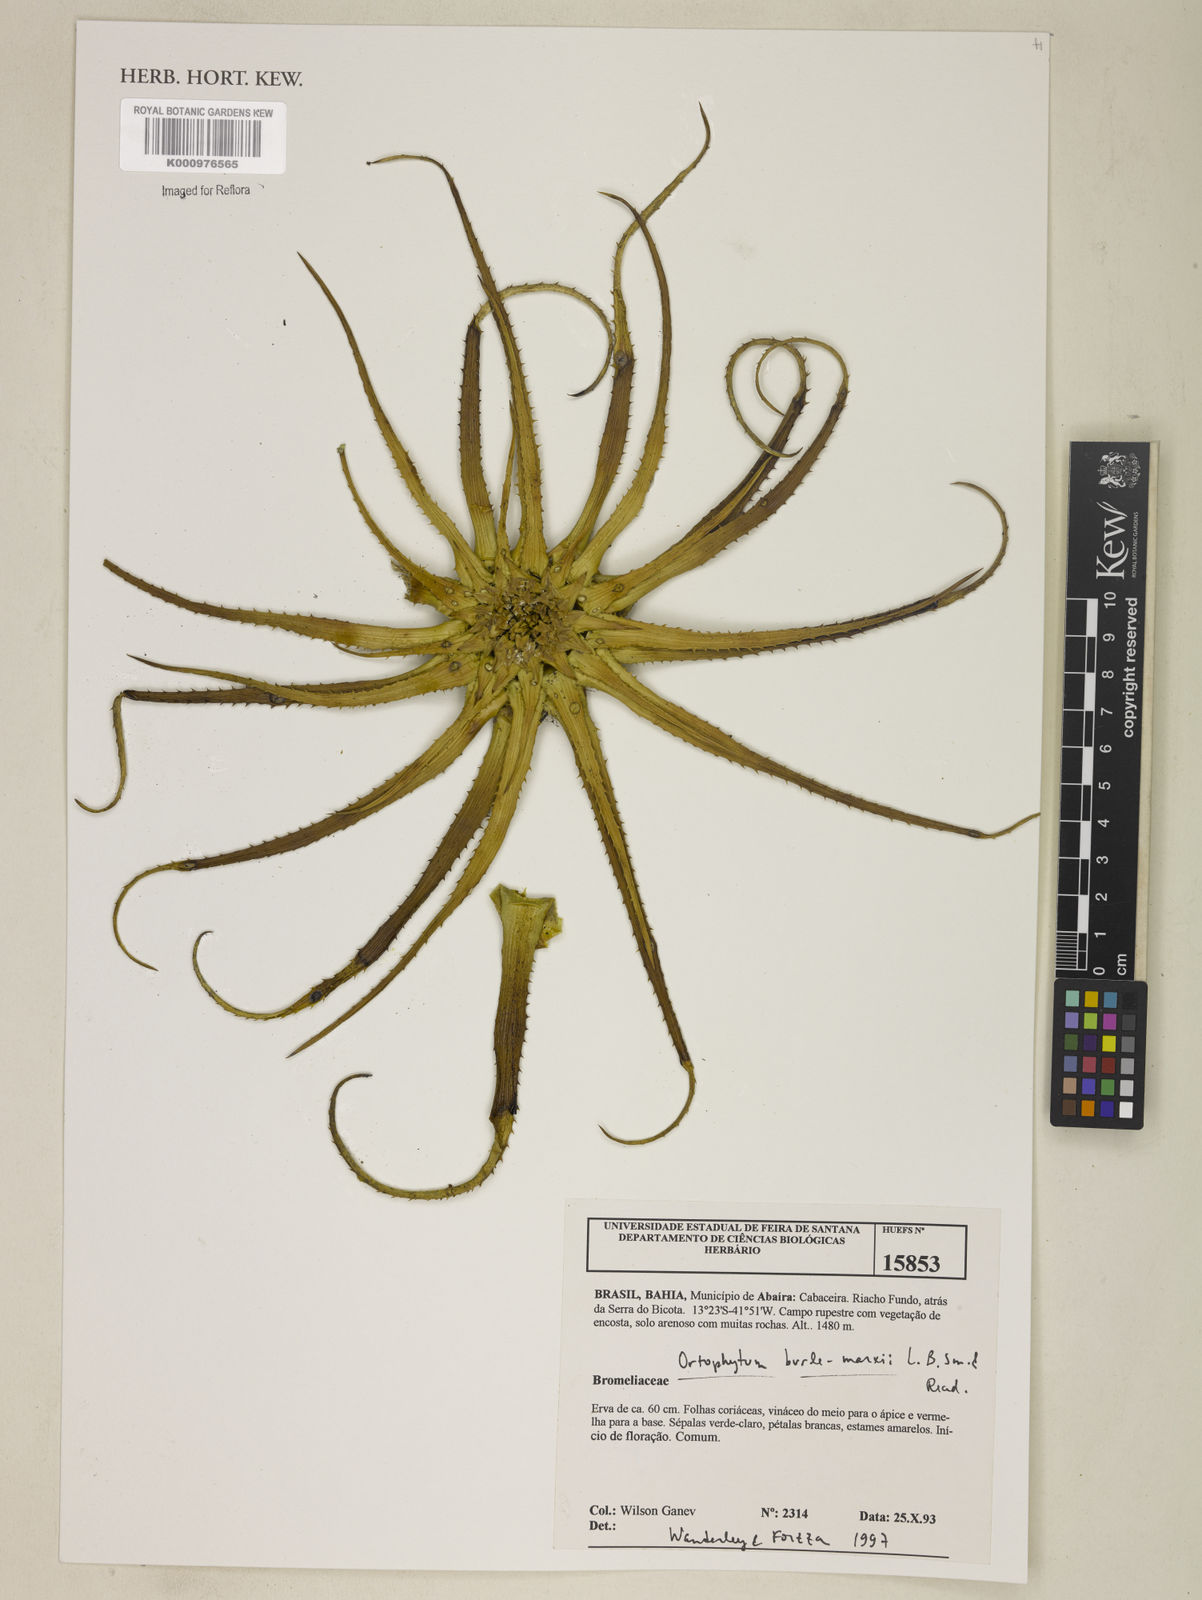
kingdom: Plantae
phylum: Tracheophyta
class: Liliopsida
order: Poales
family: Bromeliaceae
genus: Sincoraea
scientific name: Sincoraea burle-marxii
